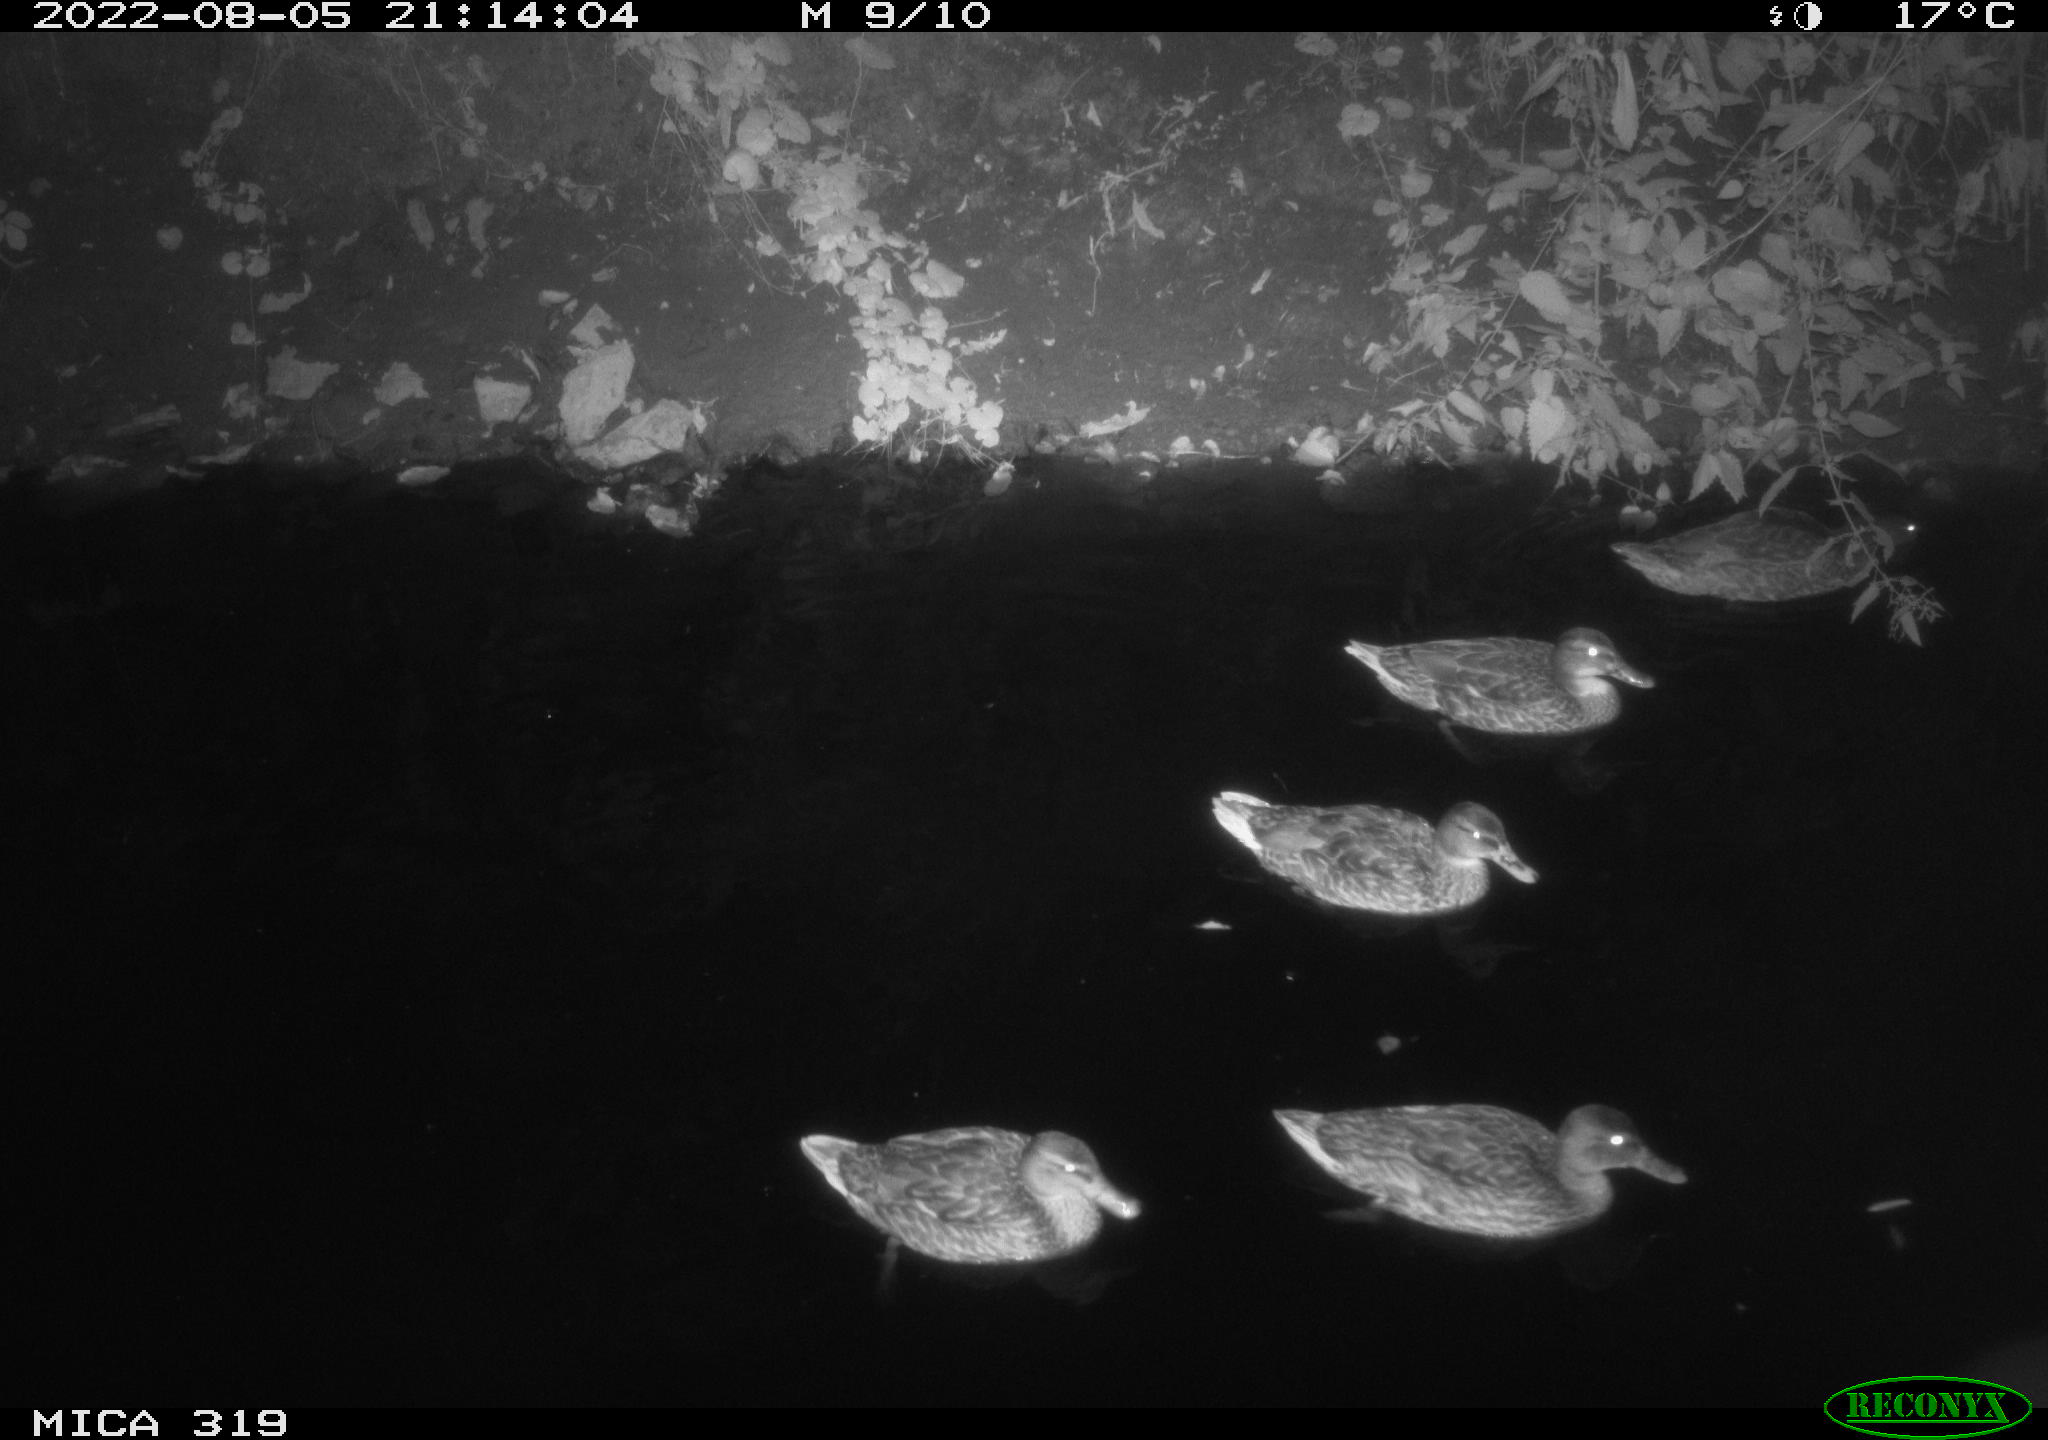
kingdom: Animalia
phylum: Chordata
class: Aves
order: Anseriformes
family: Anatidae
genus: Anas
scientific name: Anas
